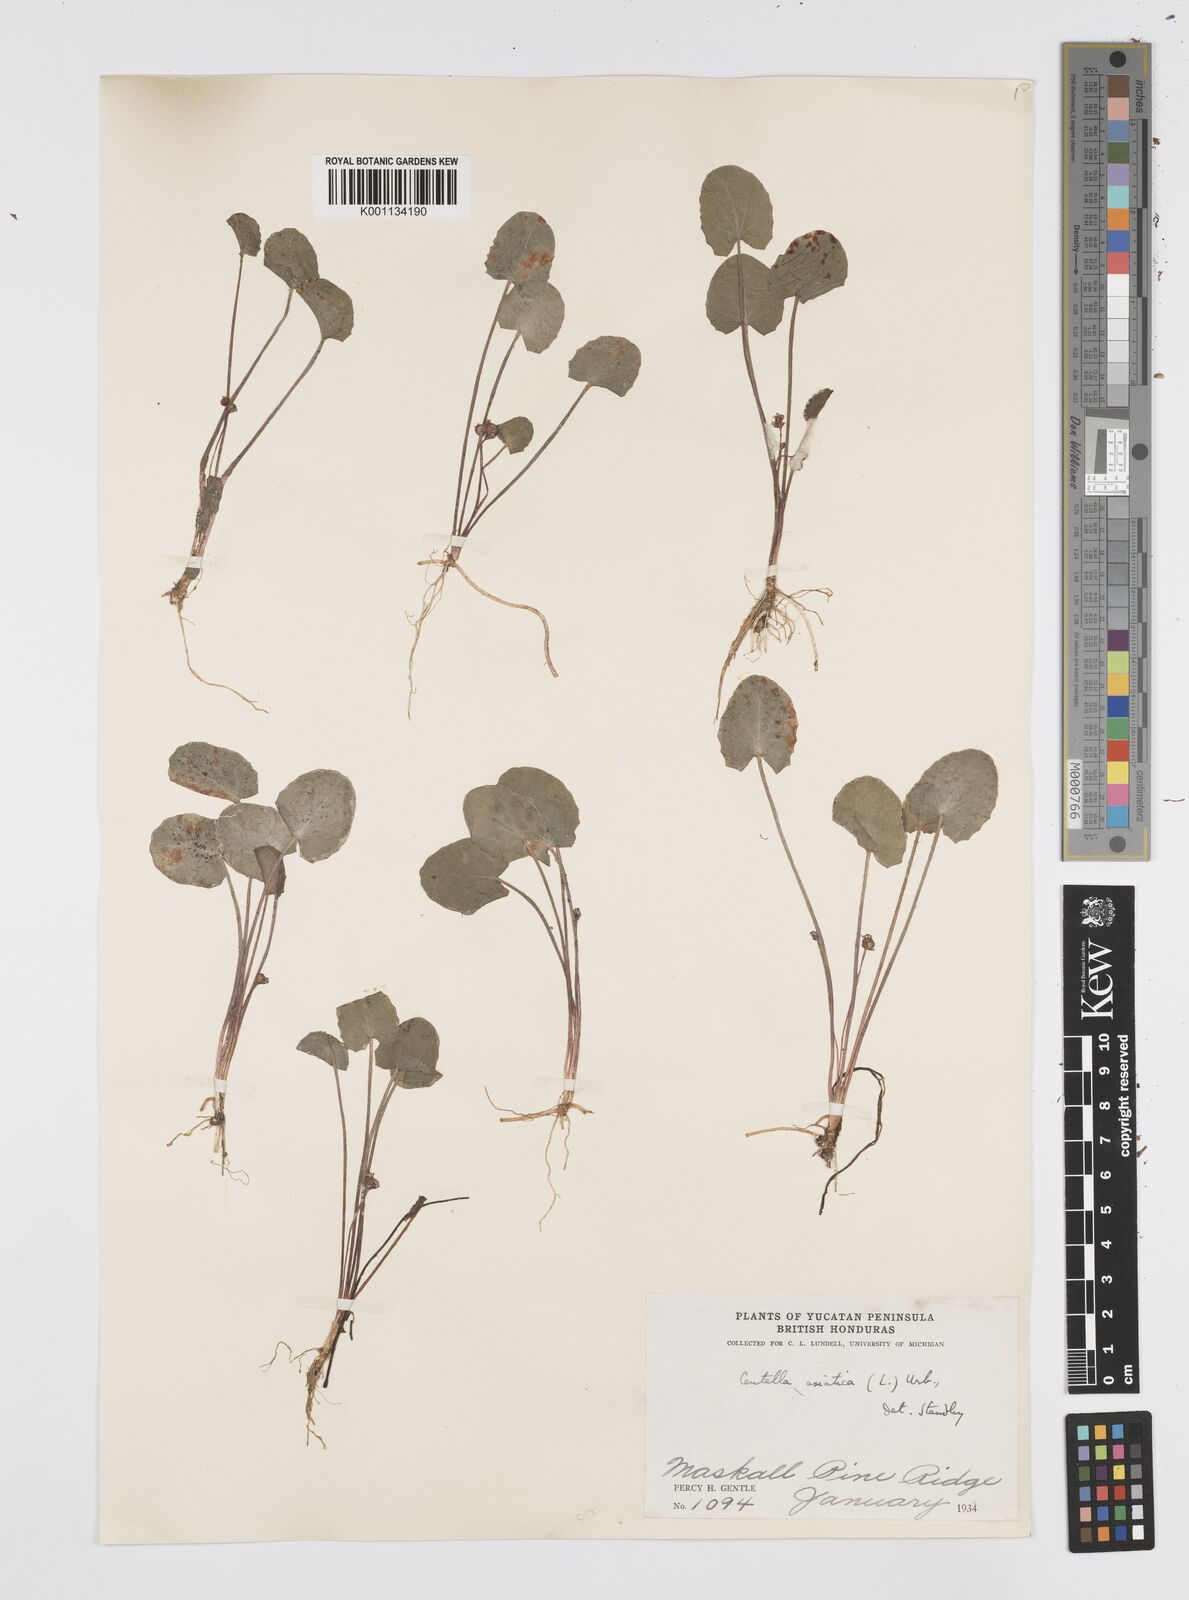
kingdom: Plantae
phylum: Tracheophyta
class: Magnoliopsida
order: Apiales
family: Apiaceae
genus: Centella
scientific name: Centella asiatica
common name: Spadeleaf
